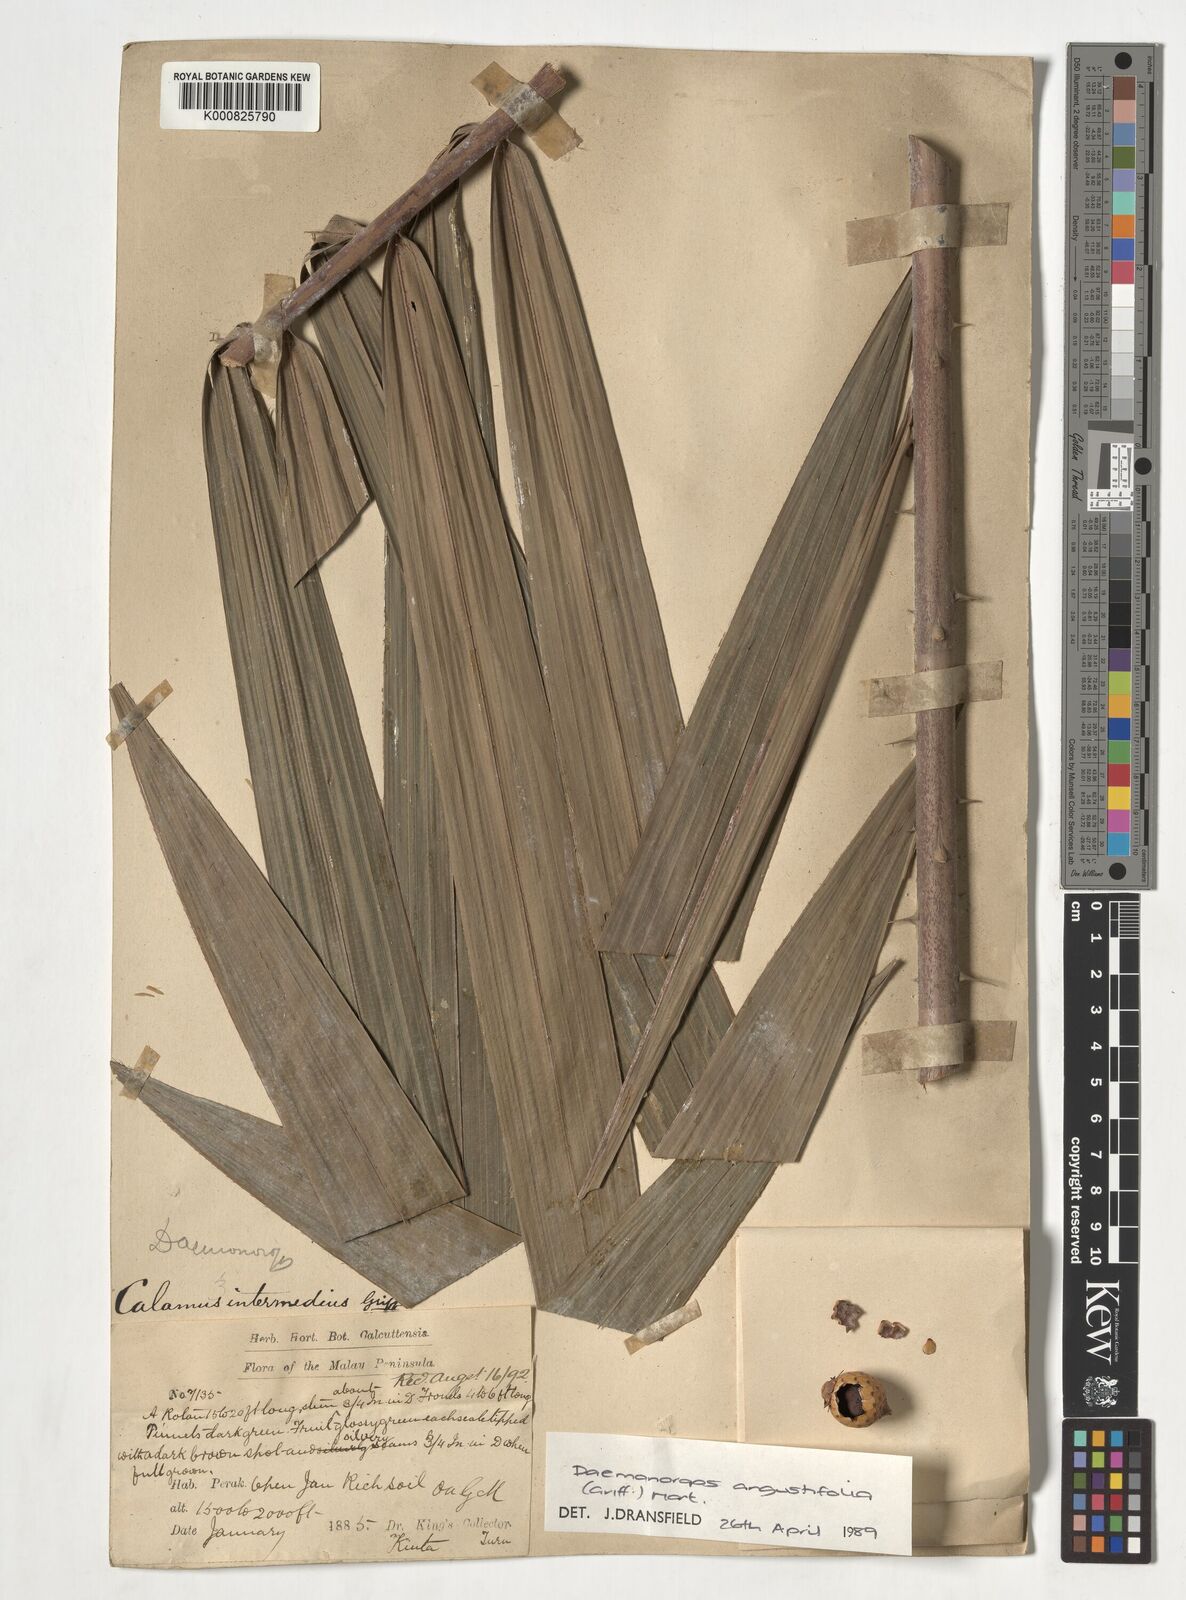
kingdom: Plantae
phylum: Tracheophyta
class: Liliopsida
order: Arecales
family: Arecaceae
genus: Calamus
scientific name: Calamus melanochaetes
